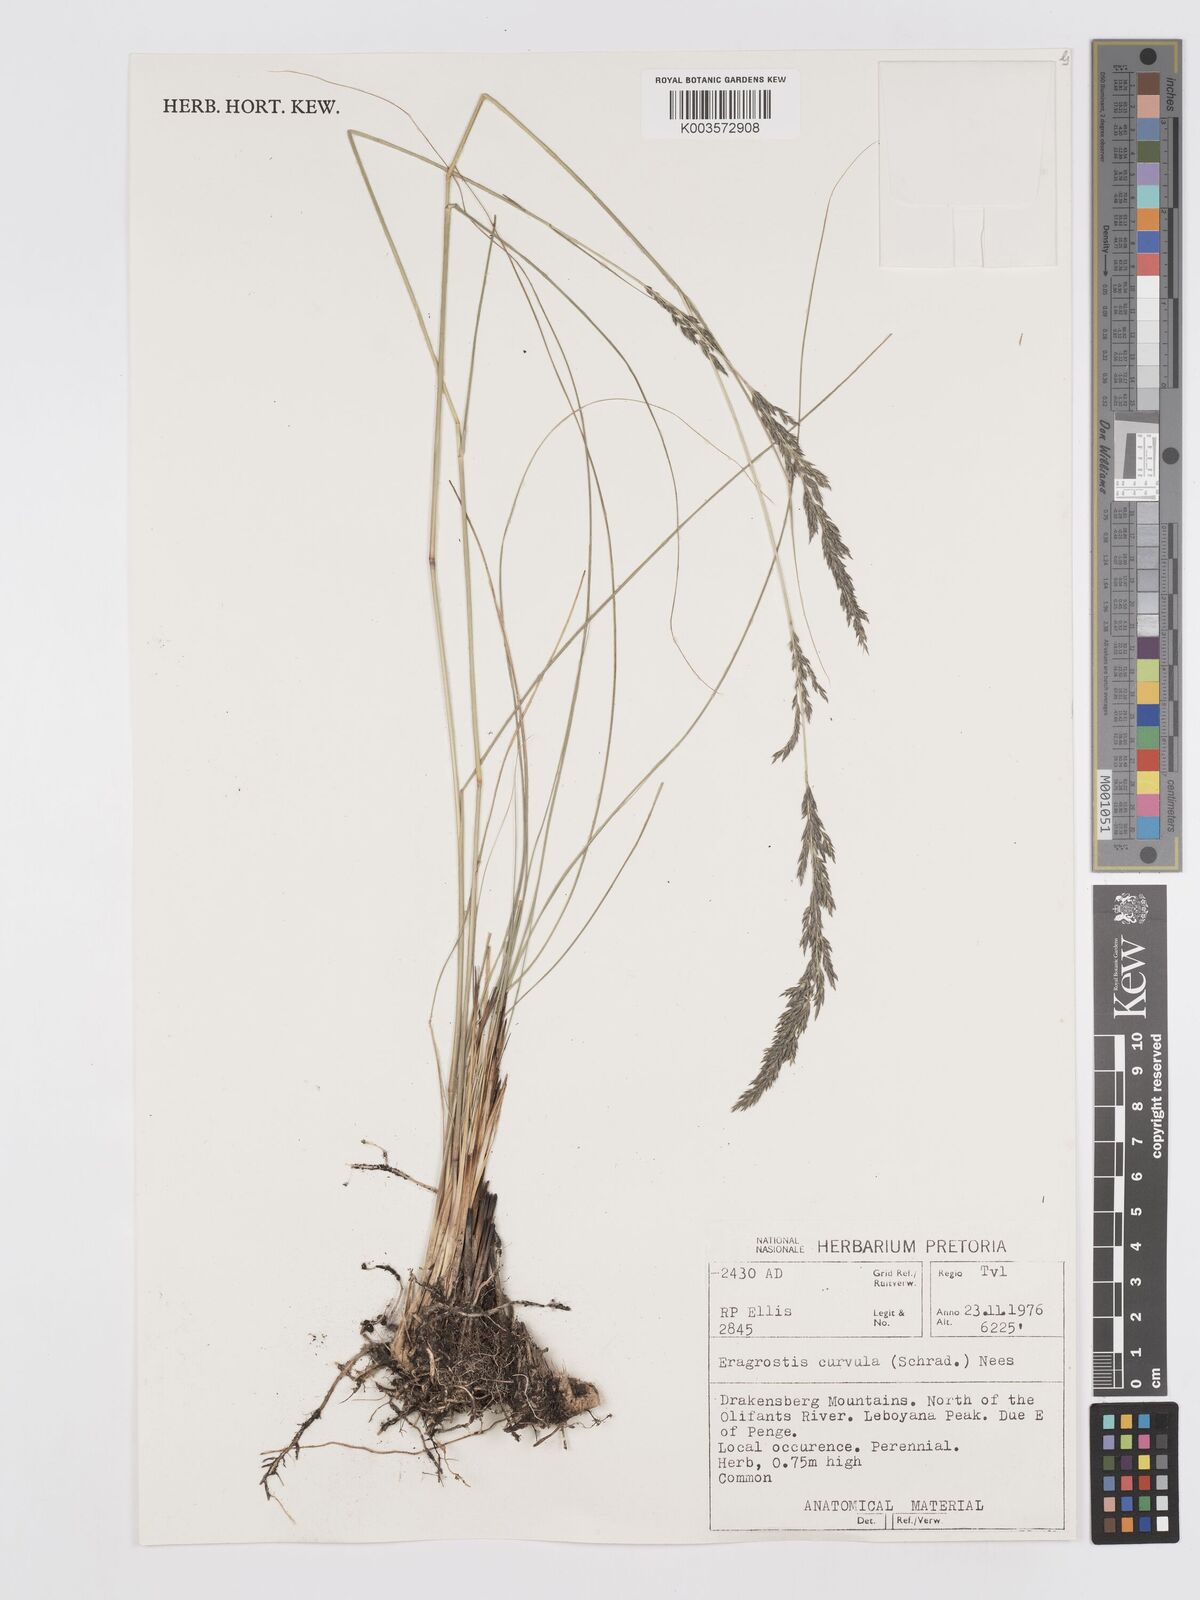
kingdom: Plantae
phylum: Tracheophyta
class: Liliopsida
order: Poales
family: Poaceae
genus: Eragrostis
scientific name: Eragrostis curvula
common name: African love-grass
